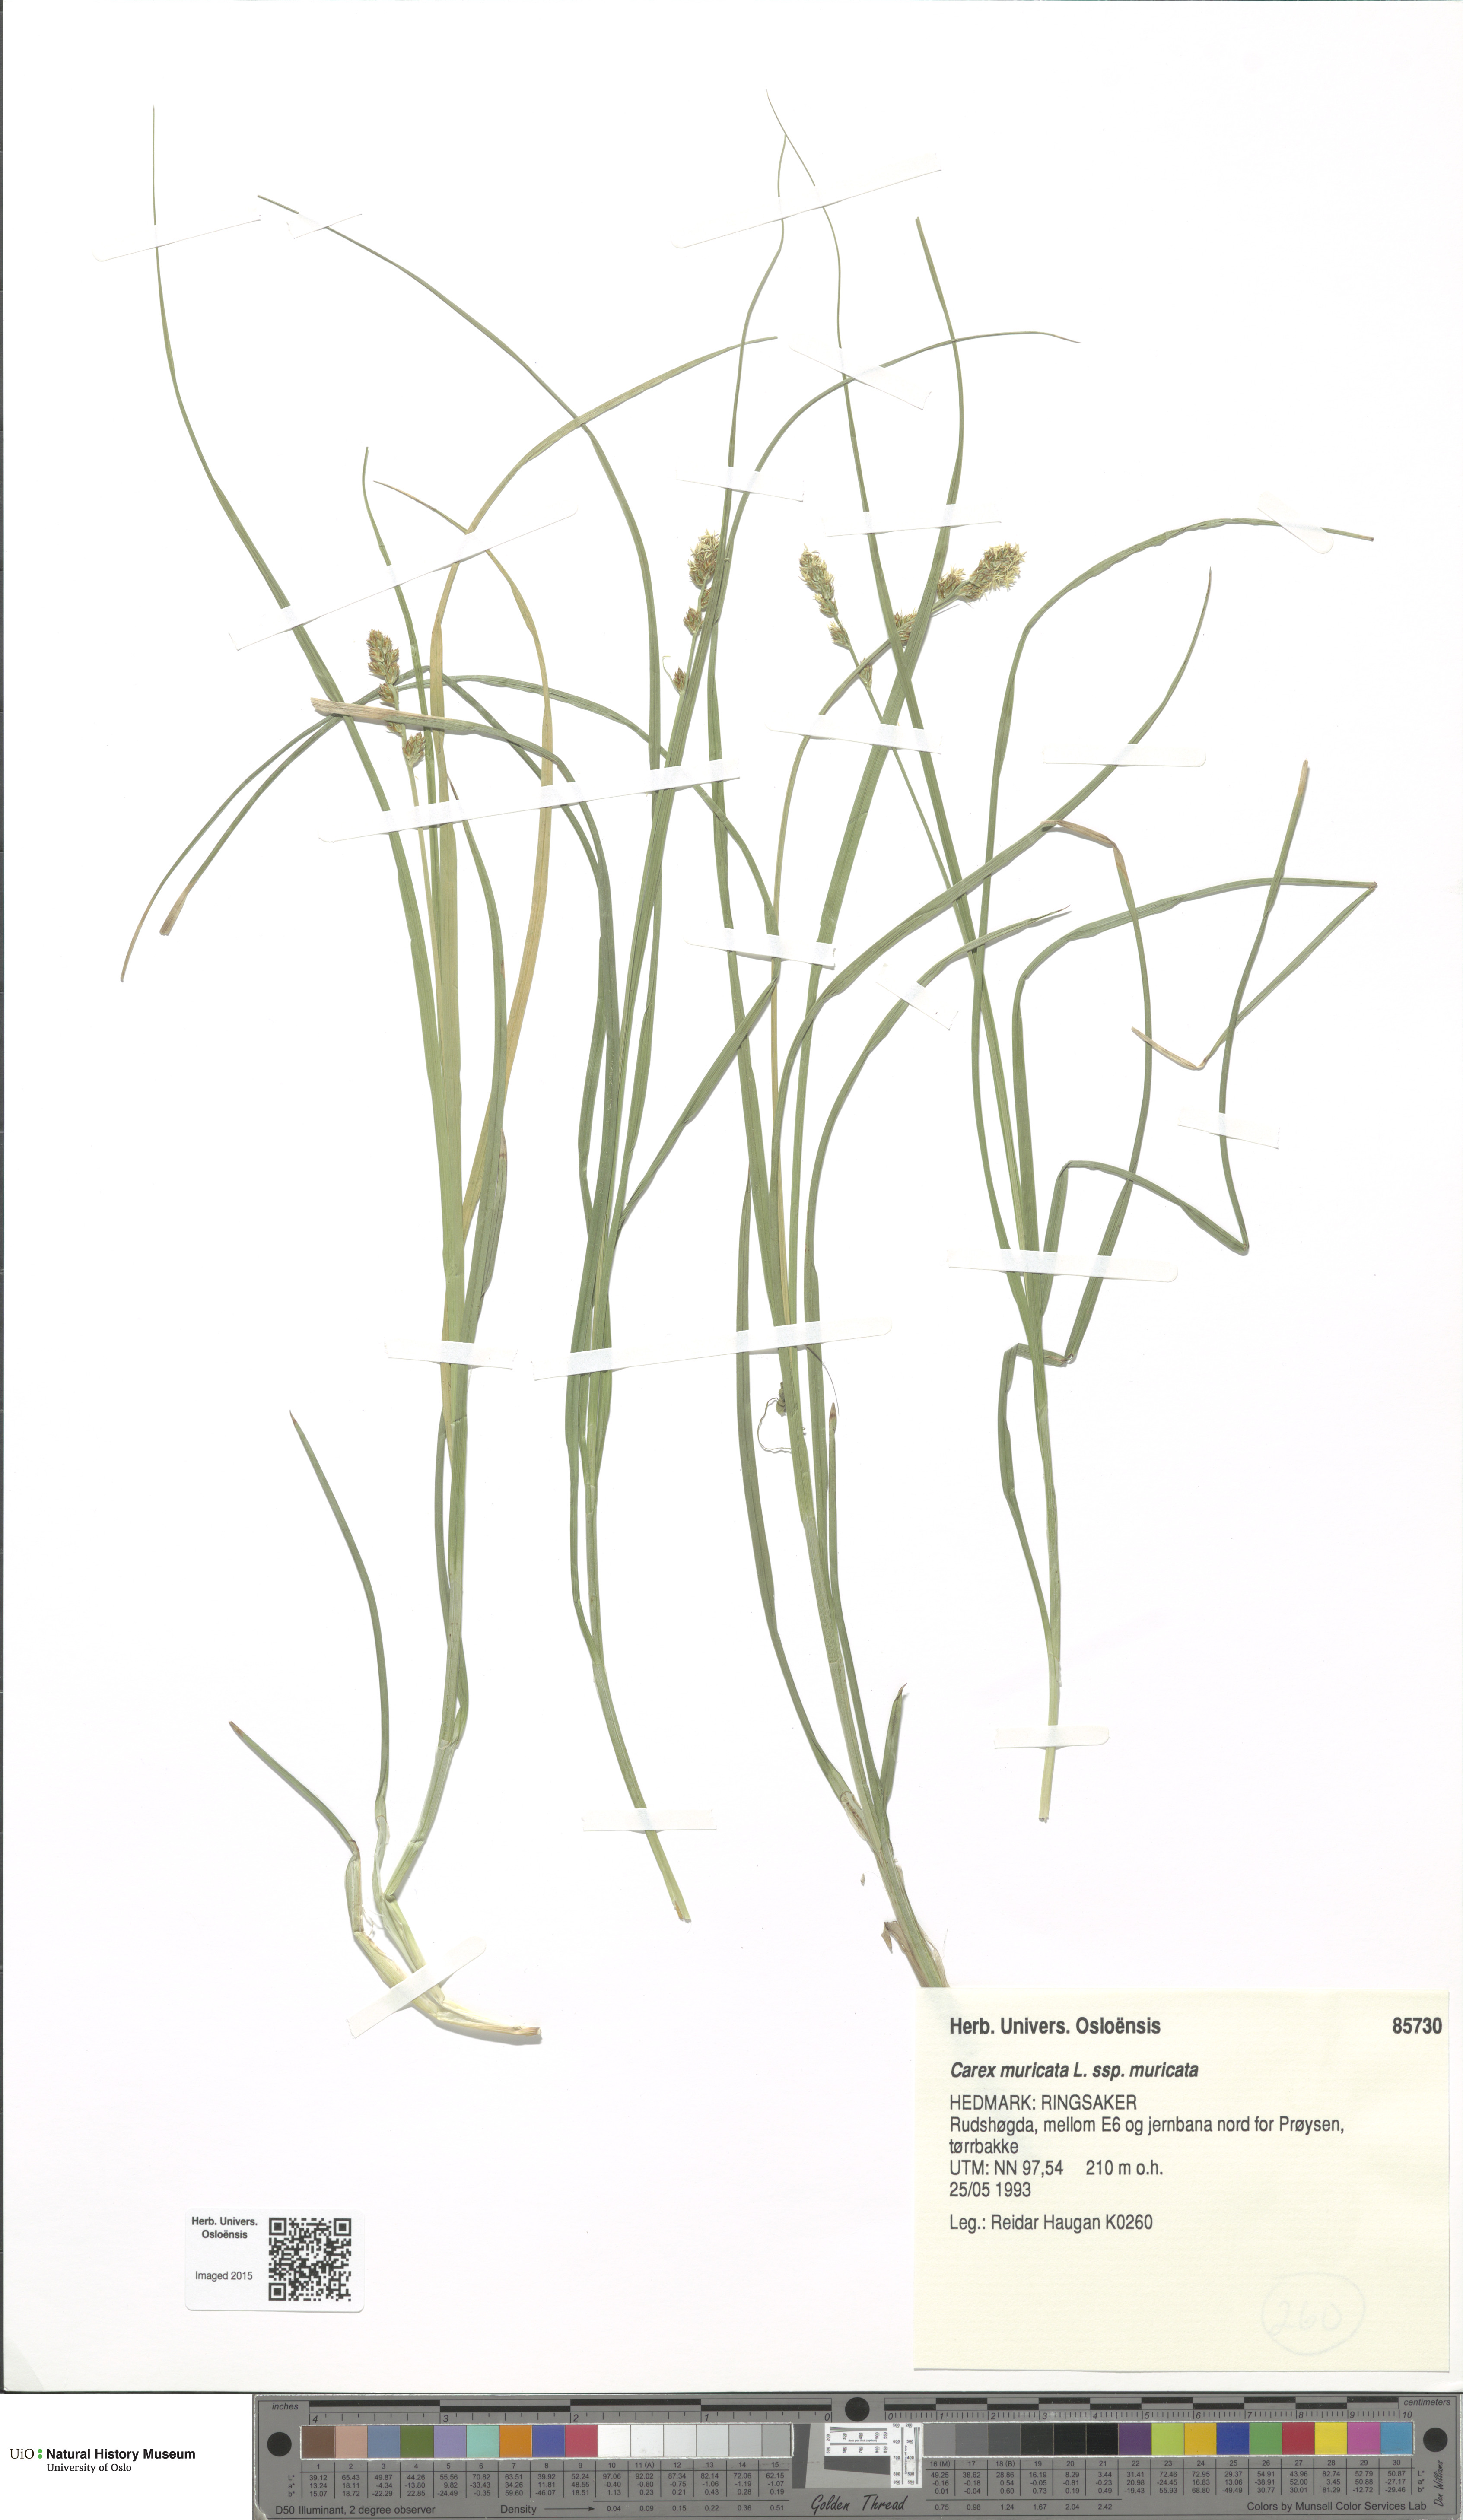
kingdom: Plantae
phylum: Tracheophyta
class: Liliopsida
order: Poales
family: Cyperaceae
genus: Carex
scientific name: Carex muricata
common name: Rough sedge
